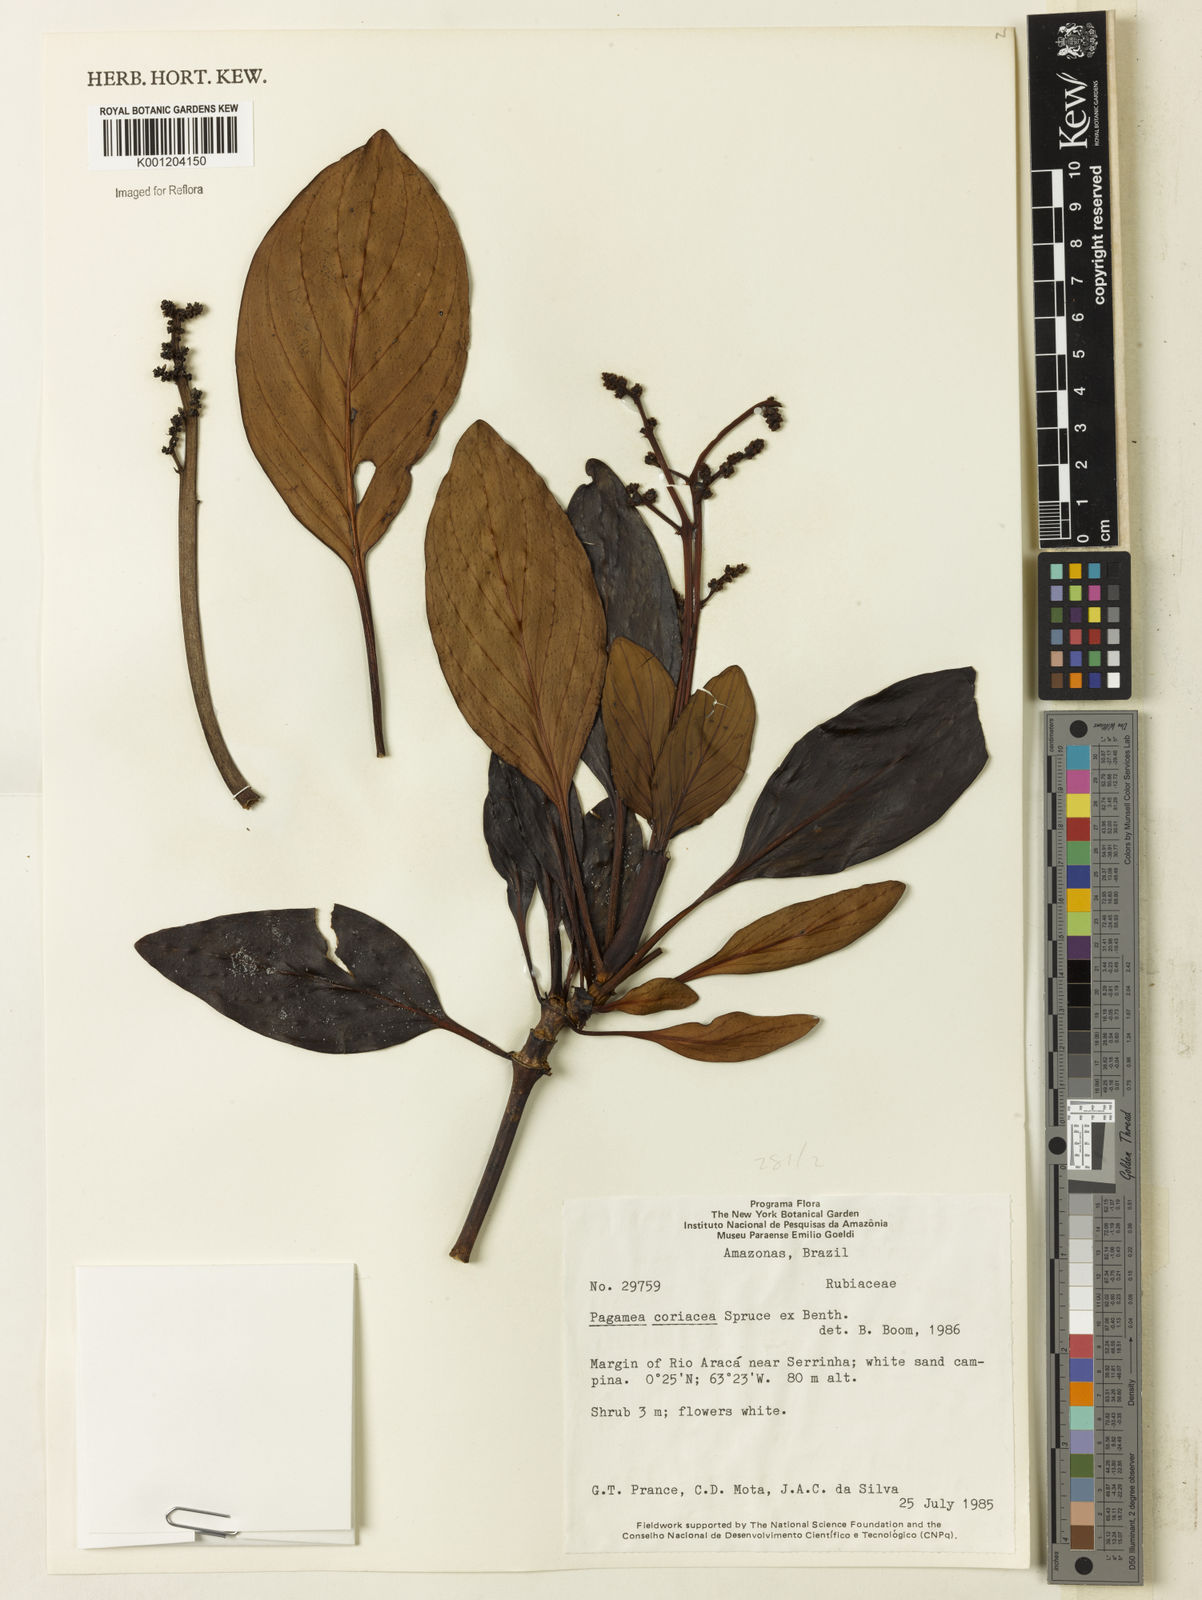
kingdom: Plantae
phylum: Tracheophyta
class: Magnoliopsida
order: Gentianales
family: Rubiaceae
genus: Pagamea
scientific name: Pagamea coriacea
